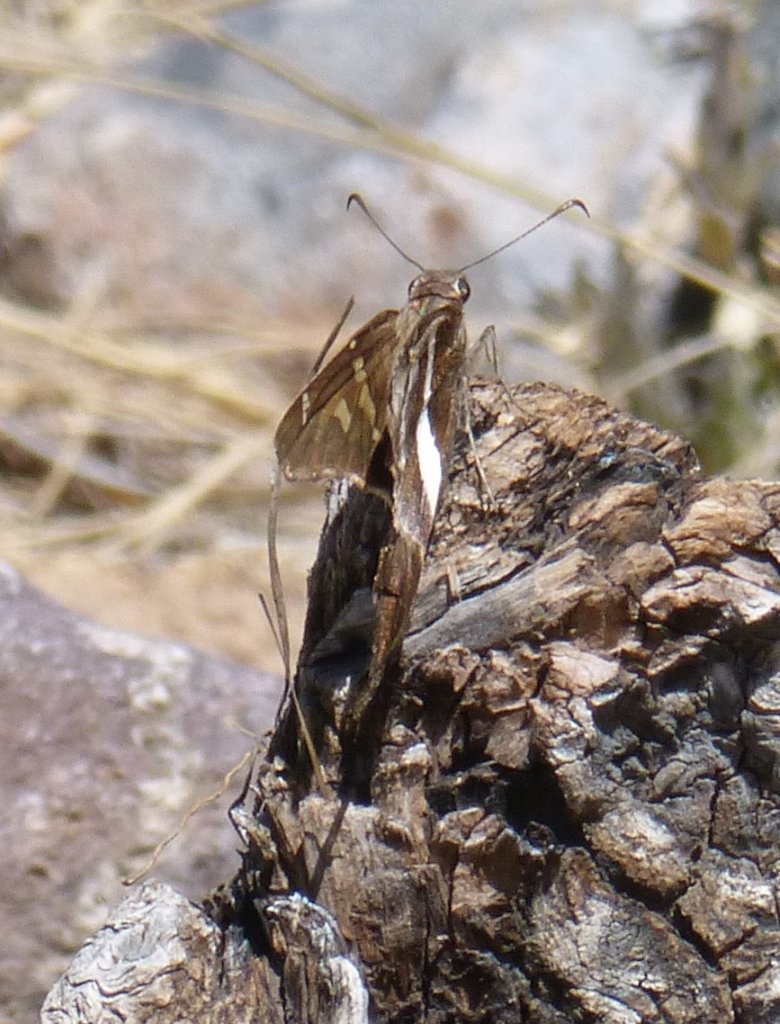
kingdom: Animalia
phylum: Arthropoda
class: Insecta
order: Lepidoptera
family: Hesperiidae
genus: Chioides
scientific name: Chioides catillus
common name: White-striped Longtail
